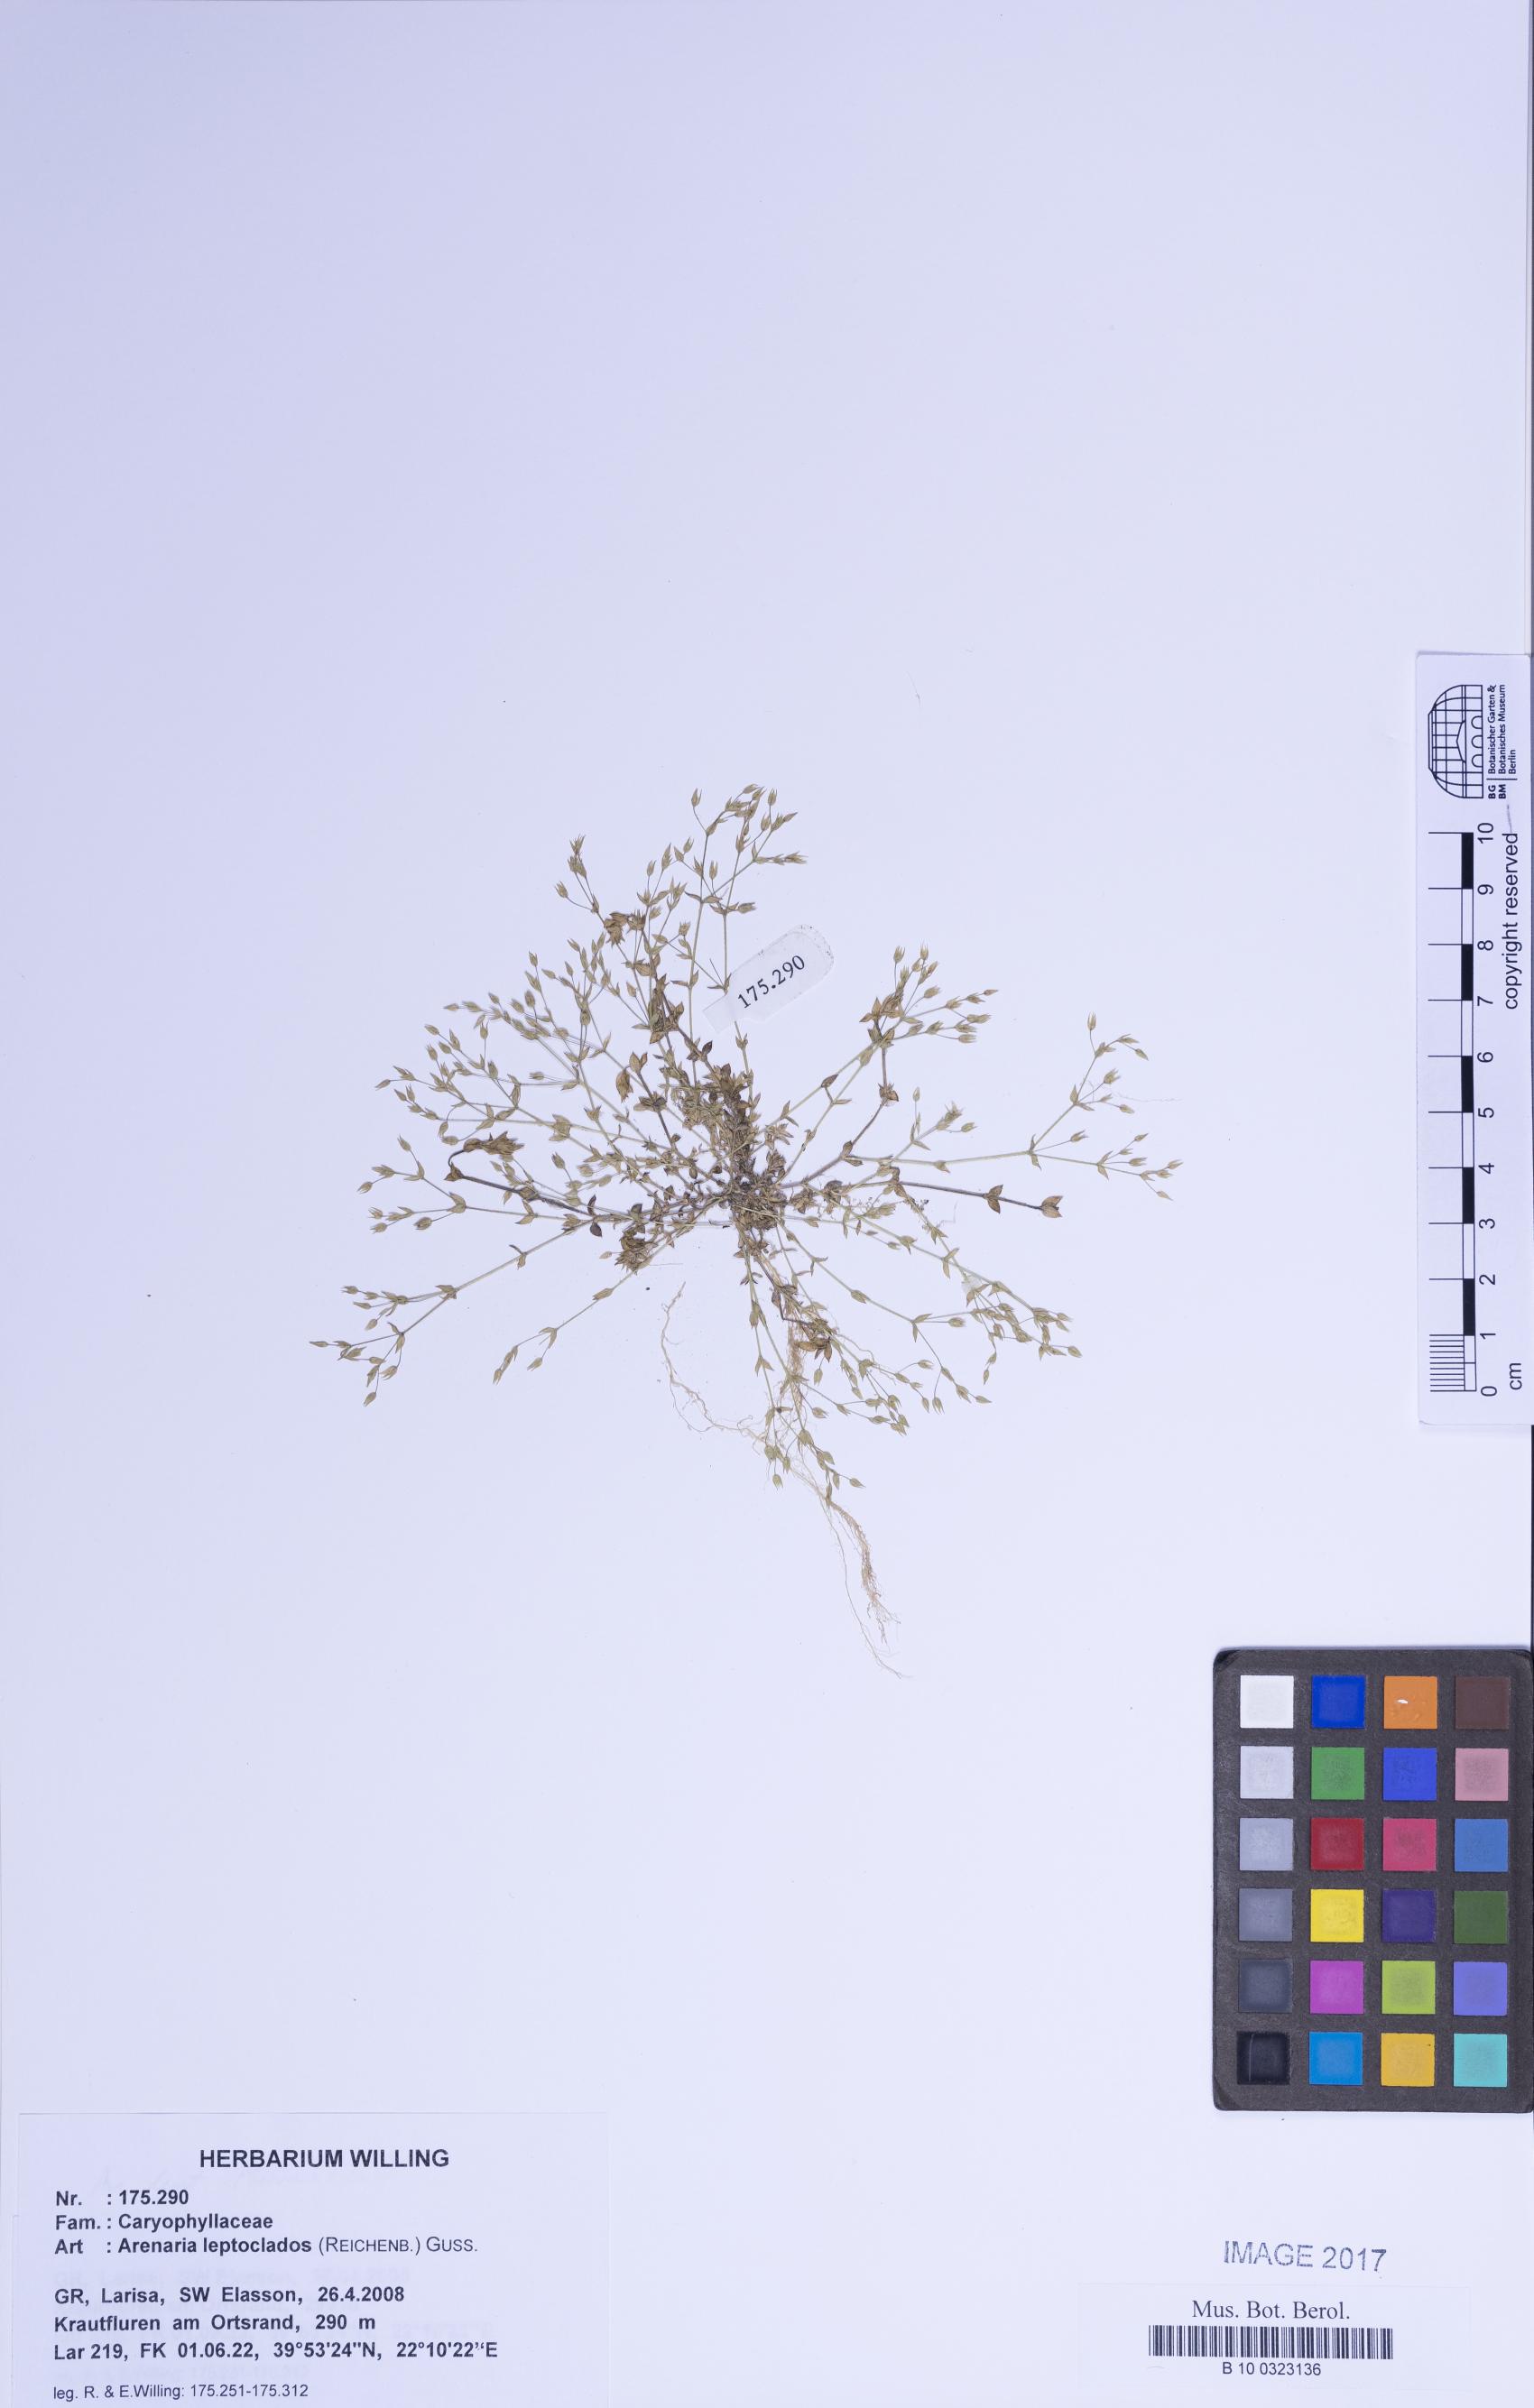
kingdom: Plantae
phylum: Tracheophyta
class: Magnoliopsida
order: Caryophyllales
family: Caryophyllaceae
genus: Arenaria
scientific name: Arenaria leptoclados
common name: Thyme-leaved sandwort
